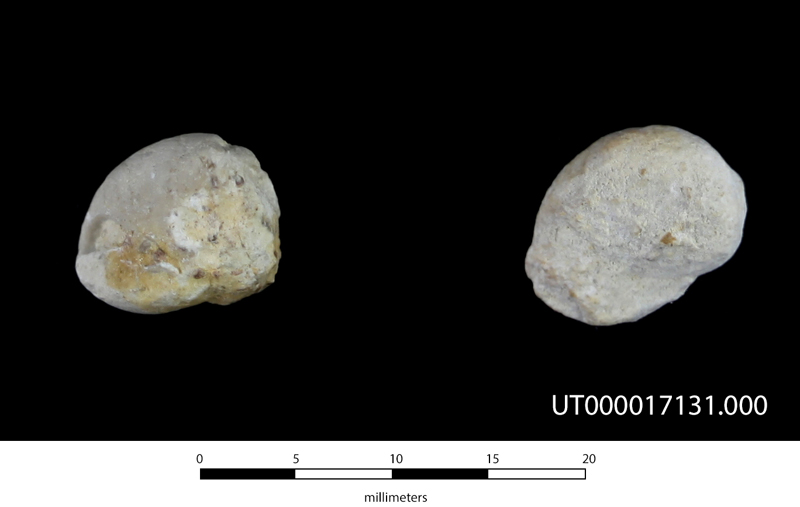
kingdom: Animalia
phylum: Mollusca
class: Gastropoda
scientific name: Gastropoda
